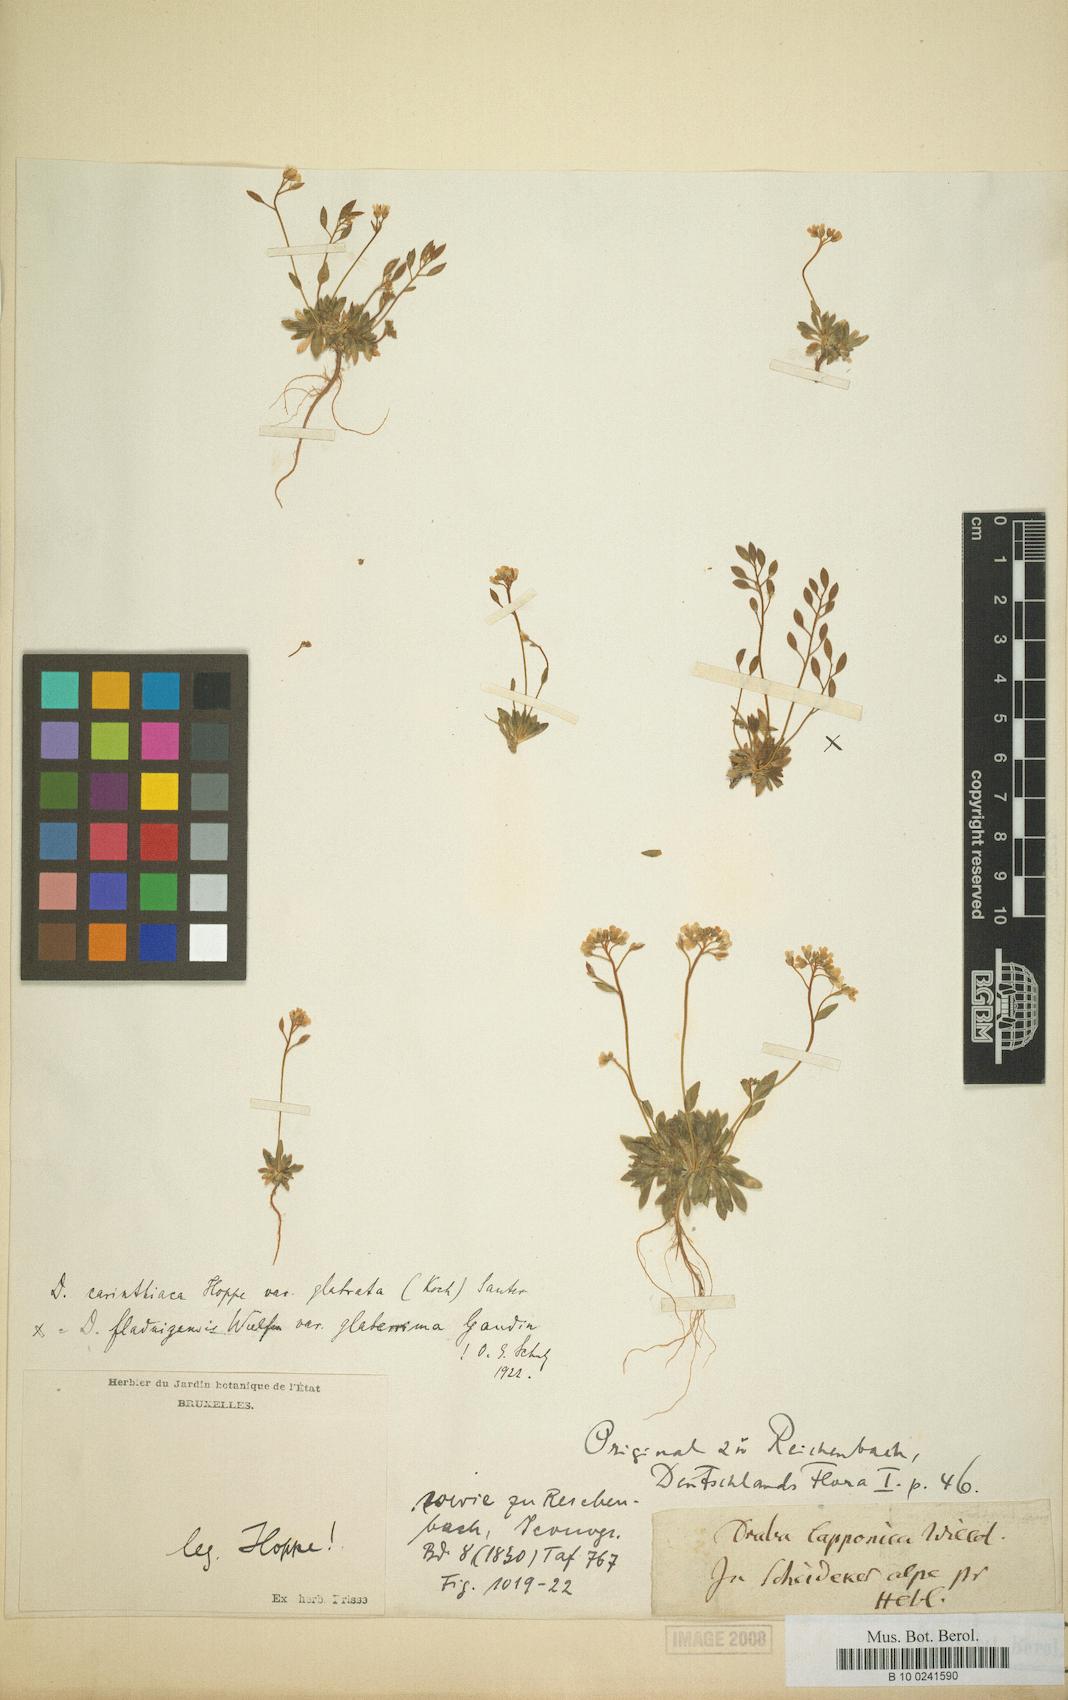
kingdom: Plantae
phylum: Tracheophyta
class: Magnoliopsida
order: Brassicales
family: Brassicaceae
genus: Draba
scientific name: Draba siliquosa
